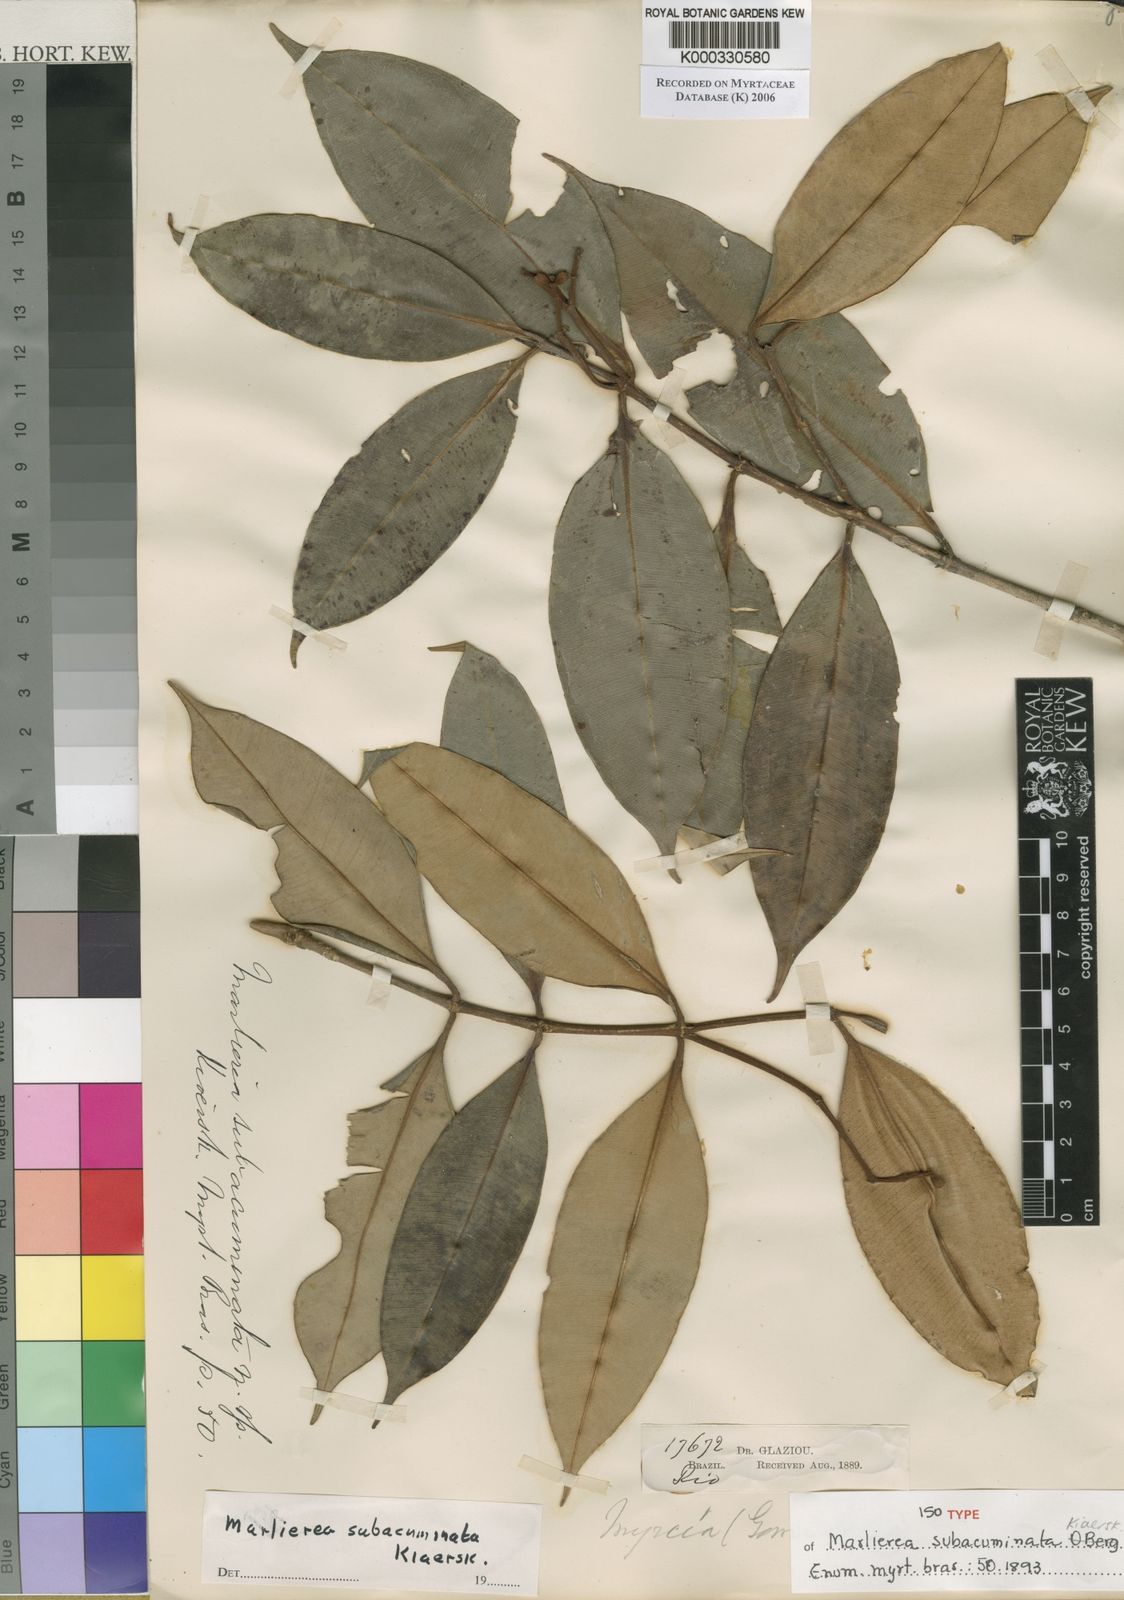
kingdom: Plantae
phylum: Tracheophyta
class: Magnoliopsida
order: Myrtales
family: Myrtaceae
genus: Myrcia
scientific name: Myrcia subacuminata
